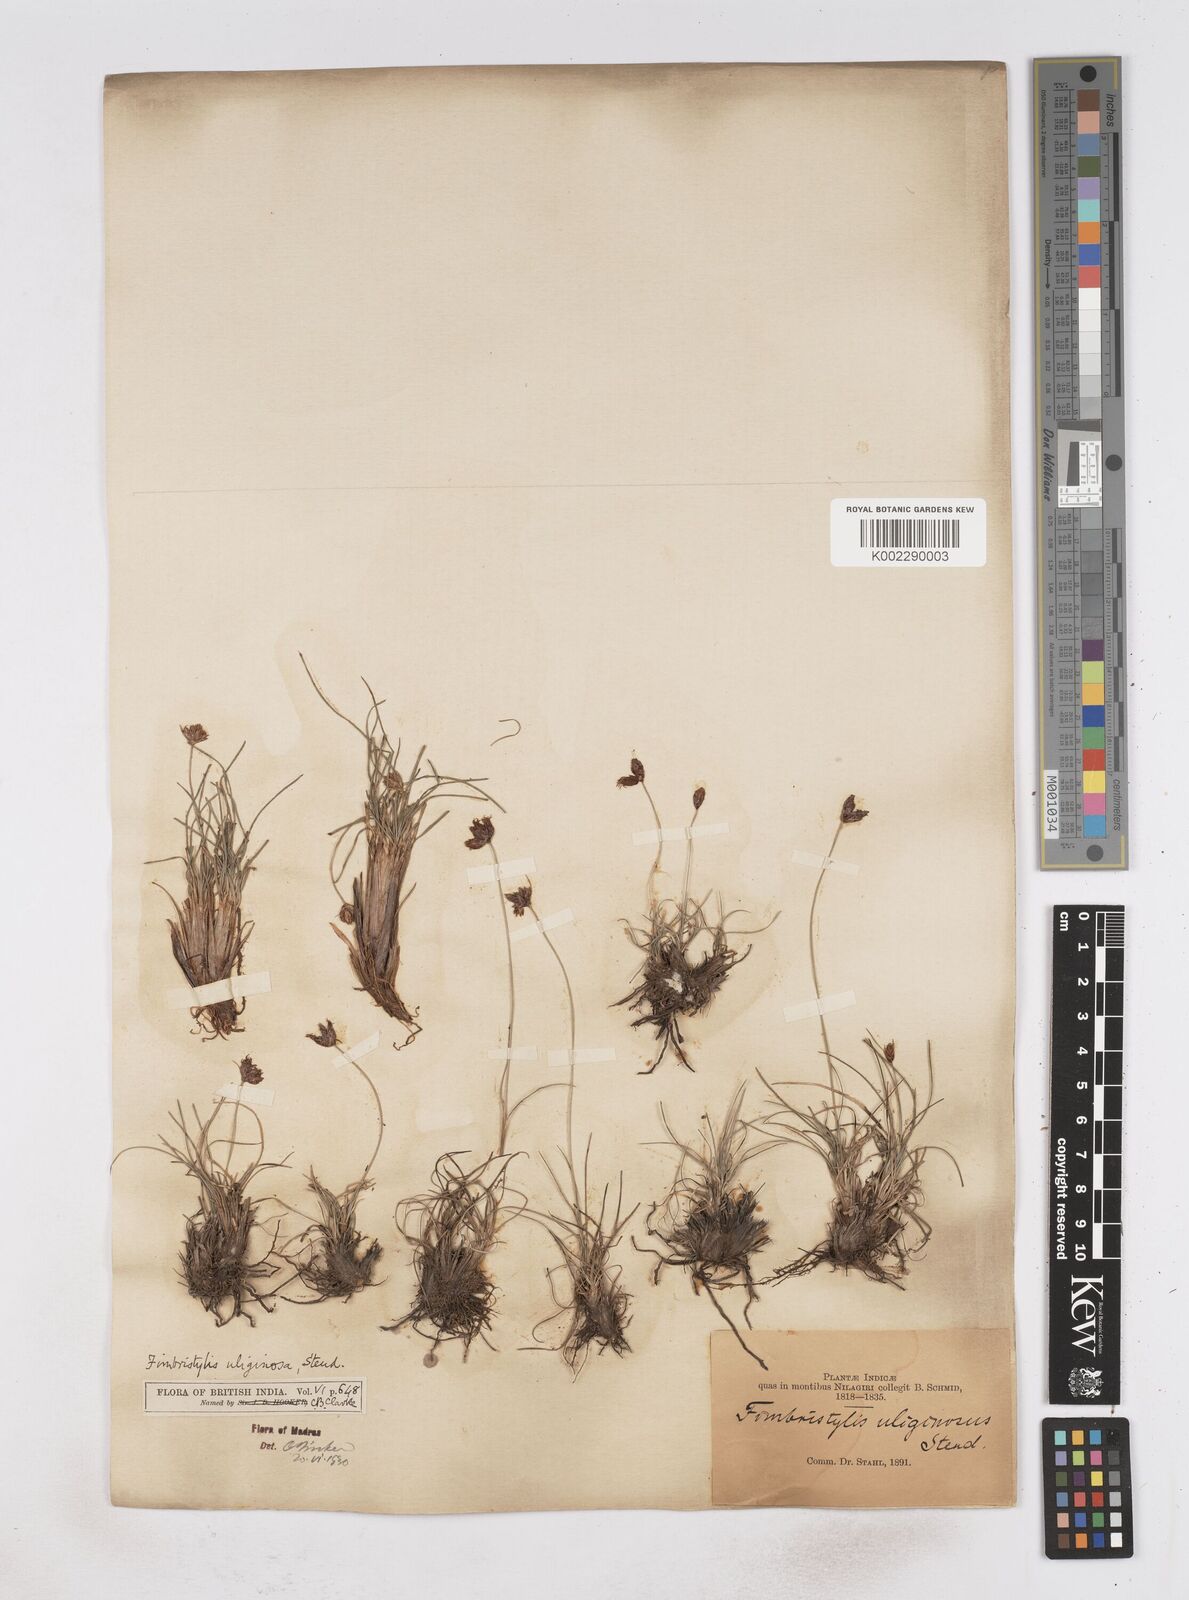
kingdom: Plantae
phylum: Tracheophyta
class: Liliopsida
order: Poales
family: Cyperaceae
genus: Fimbristylis
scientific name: Fimbristylis uliginosa
